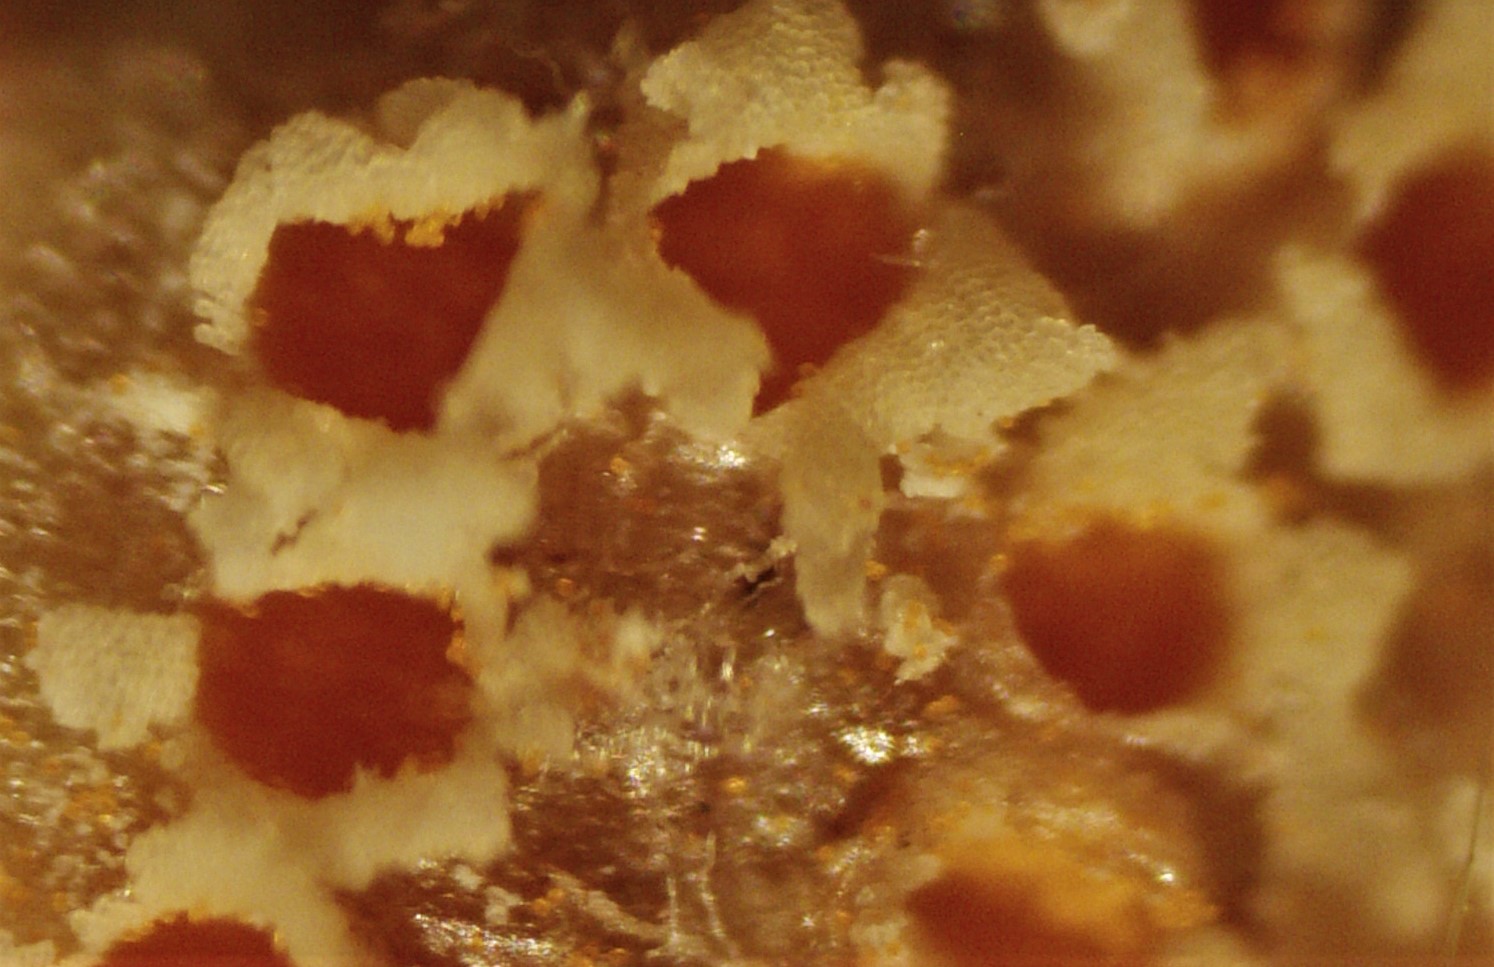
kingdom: Fungi
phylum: Basidiomycota
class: Pucciniomycetes
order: Pucciniales
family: Pucciniaceae
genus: Puccinia
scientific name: Puccinia poarum
